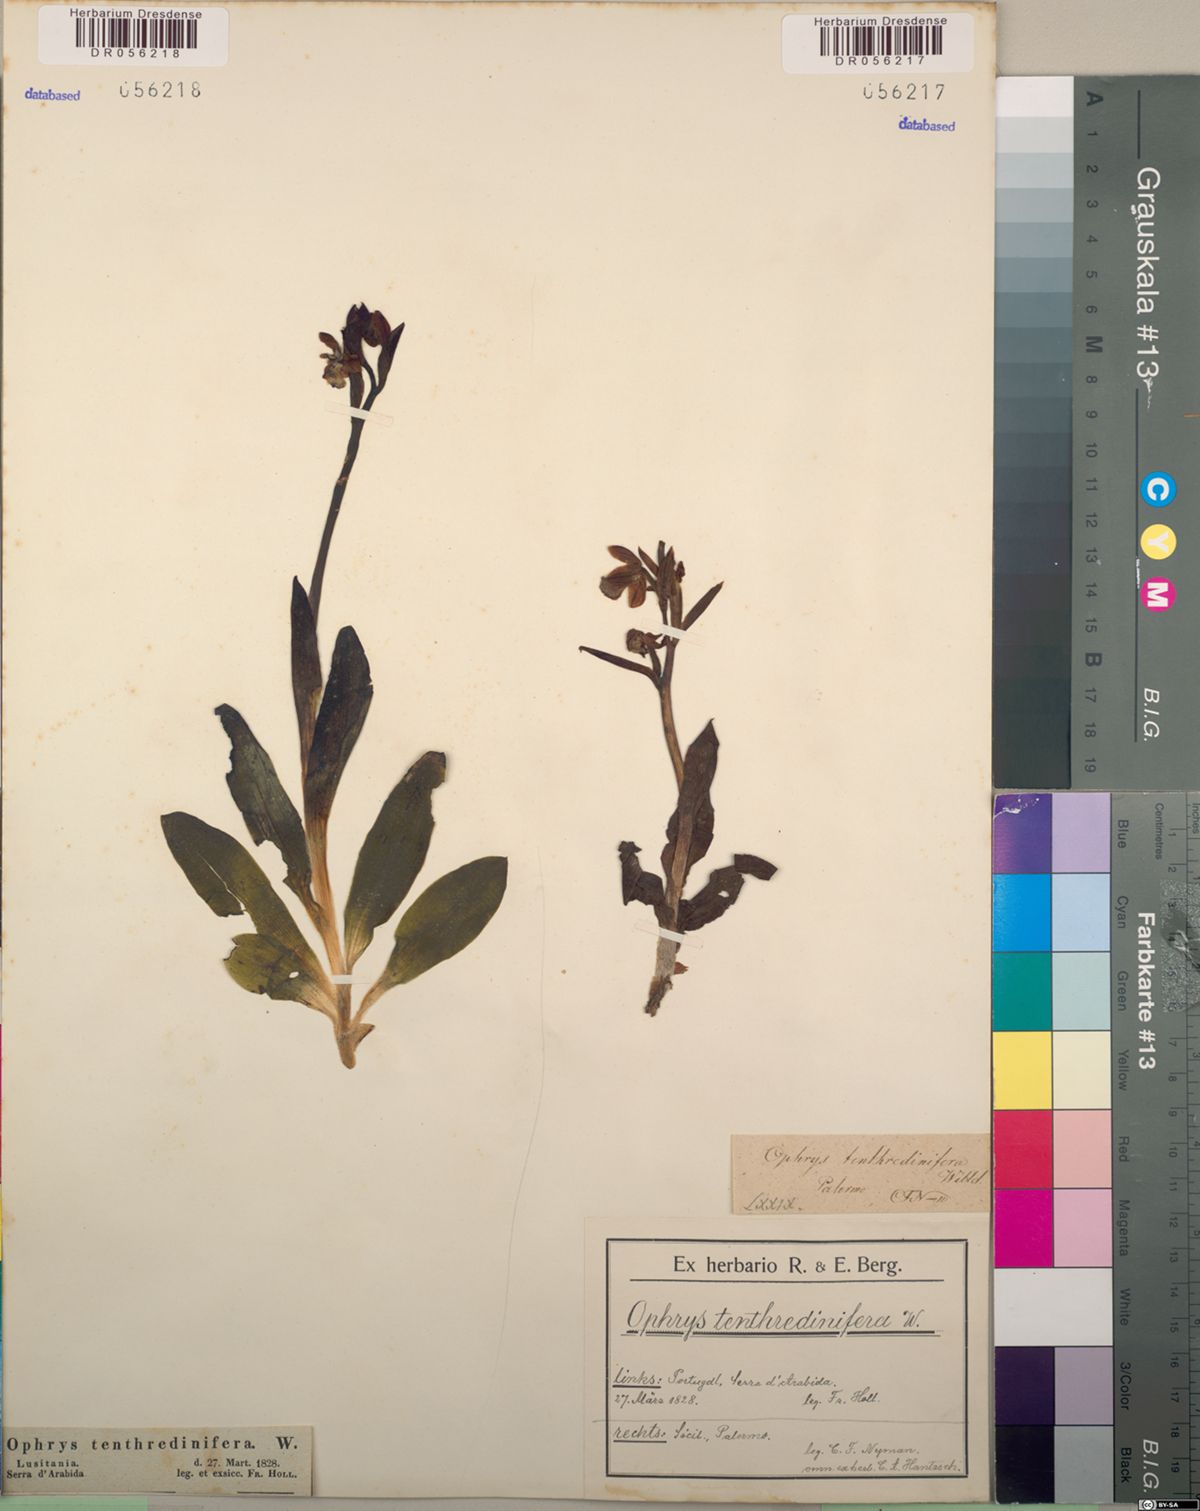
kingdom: Plantae
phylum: Tracheophyta
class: Liliopsida
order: Asparagales
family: Orchidaceae
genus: Ophrys
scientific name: Ophrys tenthredinifera
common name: Sawfly orchid
